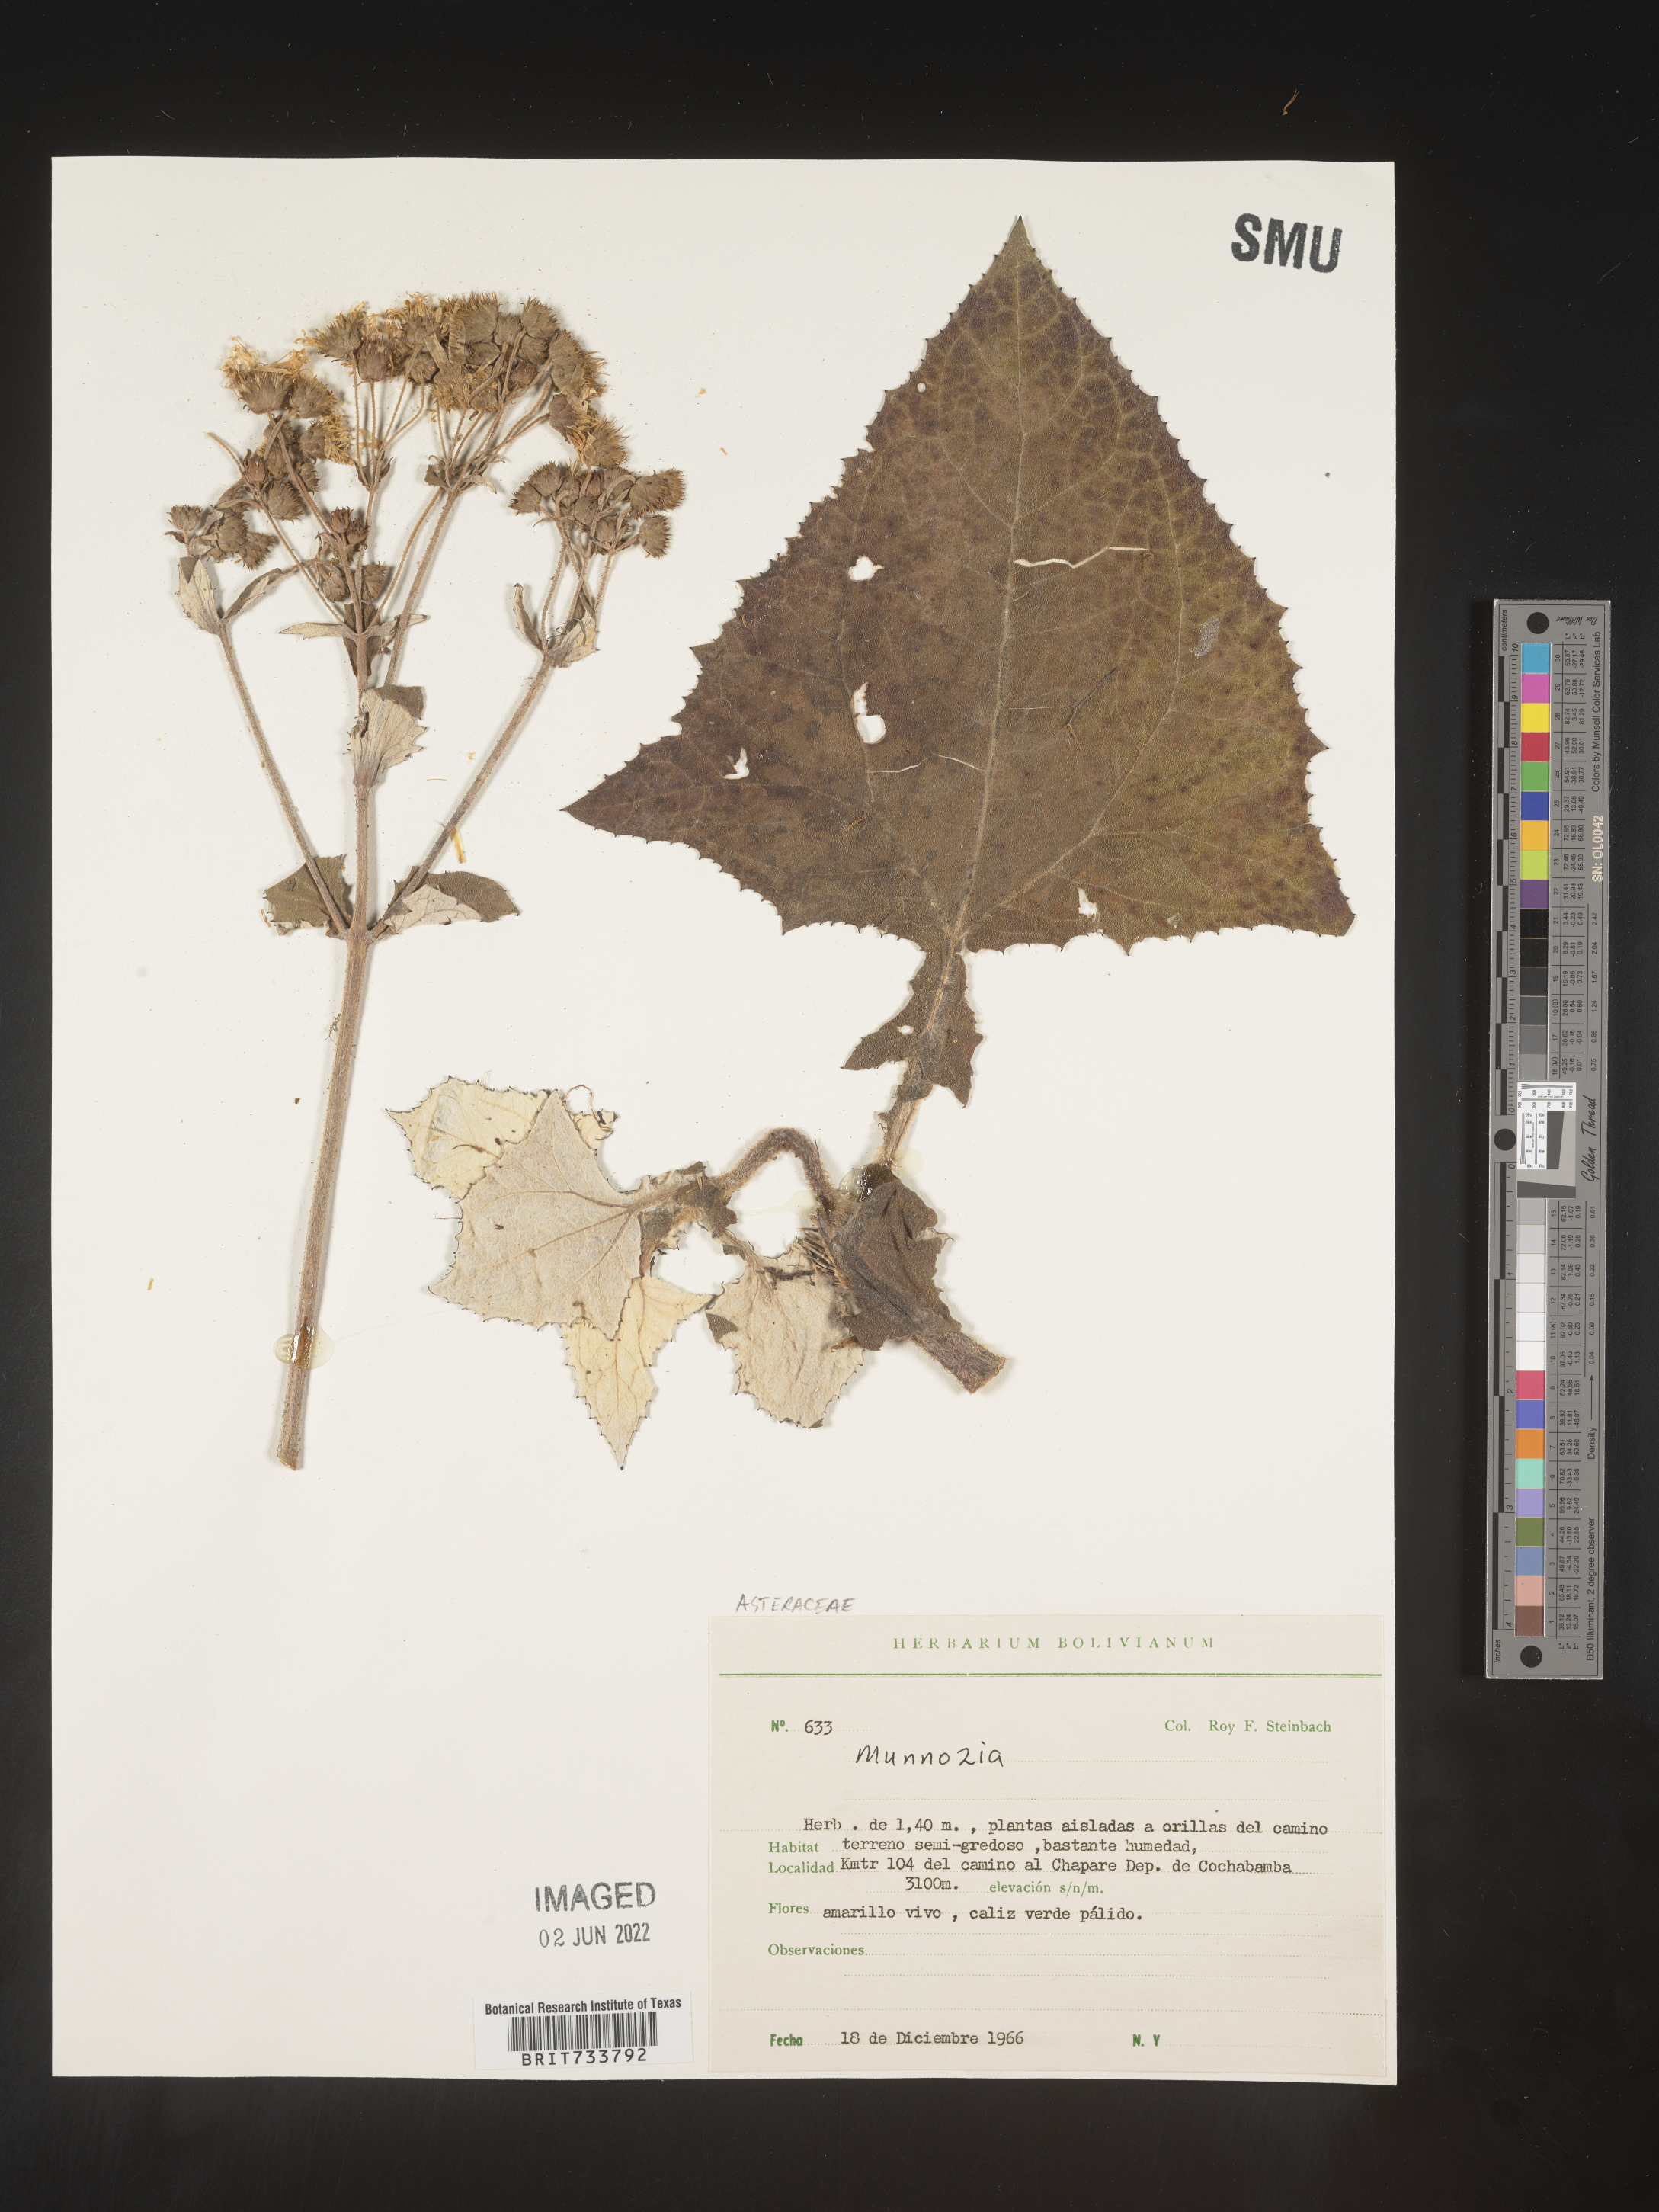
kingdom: Plantae
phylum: Tracheophyta
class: Magnoliopsida
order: Asterales
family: Asteraceae
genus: Munnozia
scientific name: Munnozia
